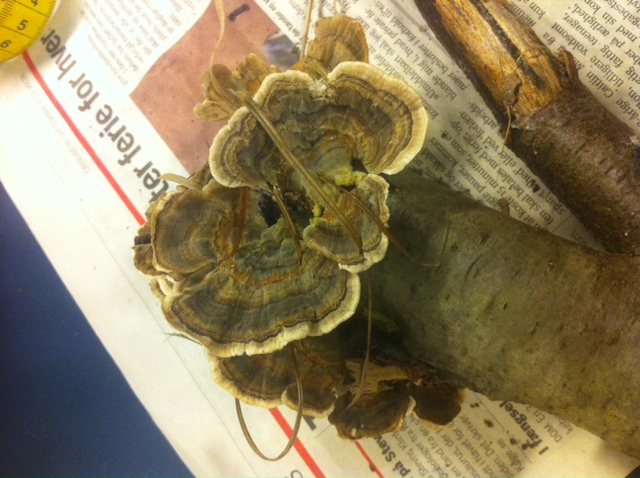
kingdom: Fungi
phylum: Basidiomycota
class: Agaricomycetes
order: Polyporales
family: Polyporaceae
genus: Trametes
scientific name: Trametes versicolor
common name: broget læderporesvamp
